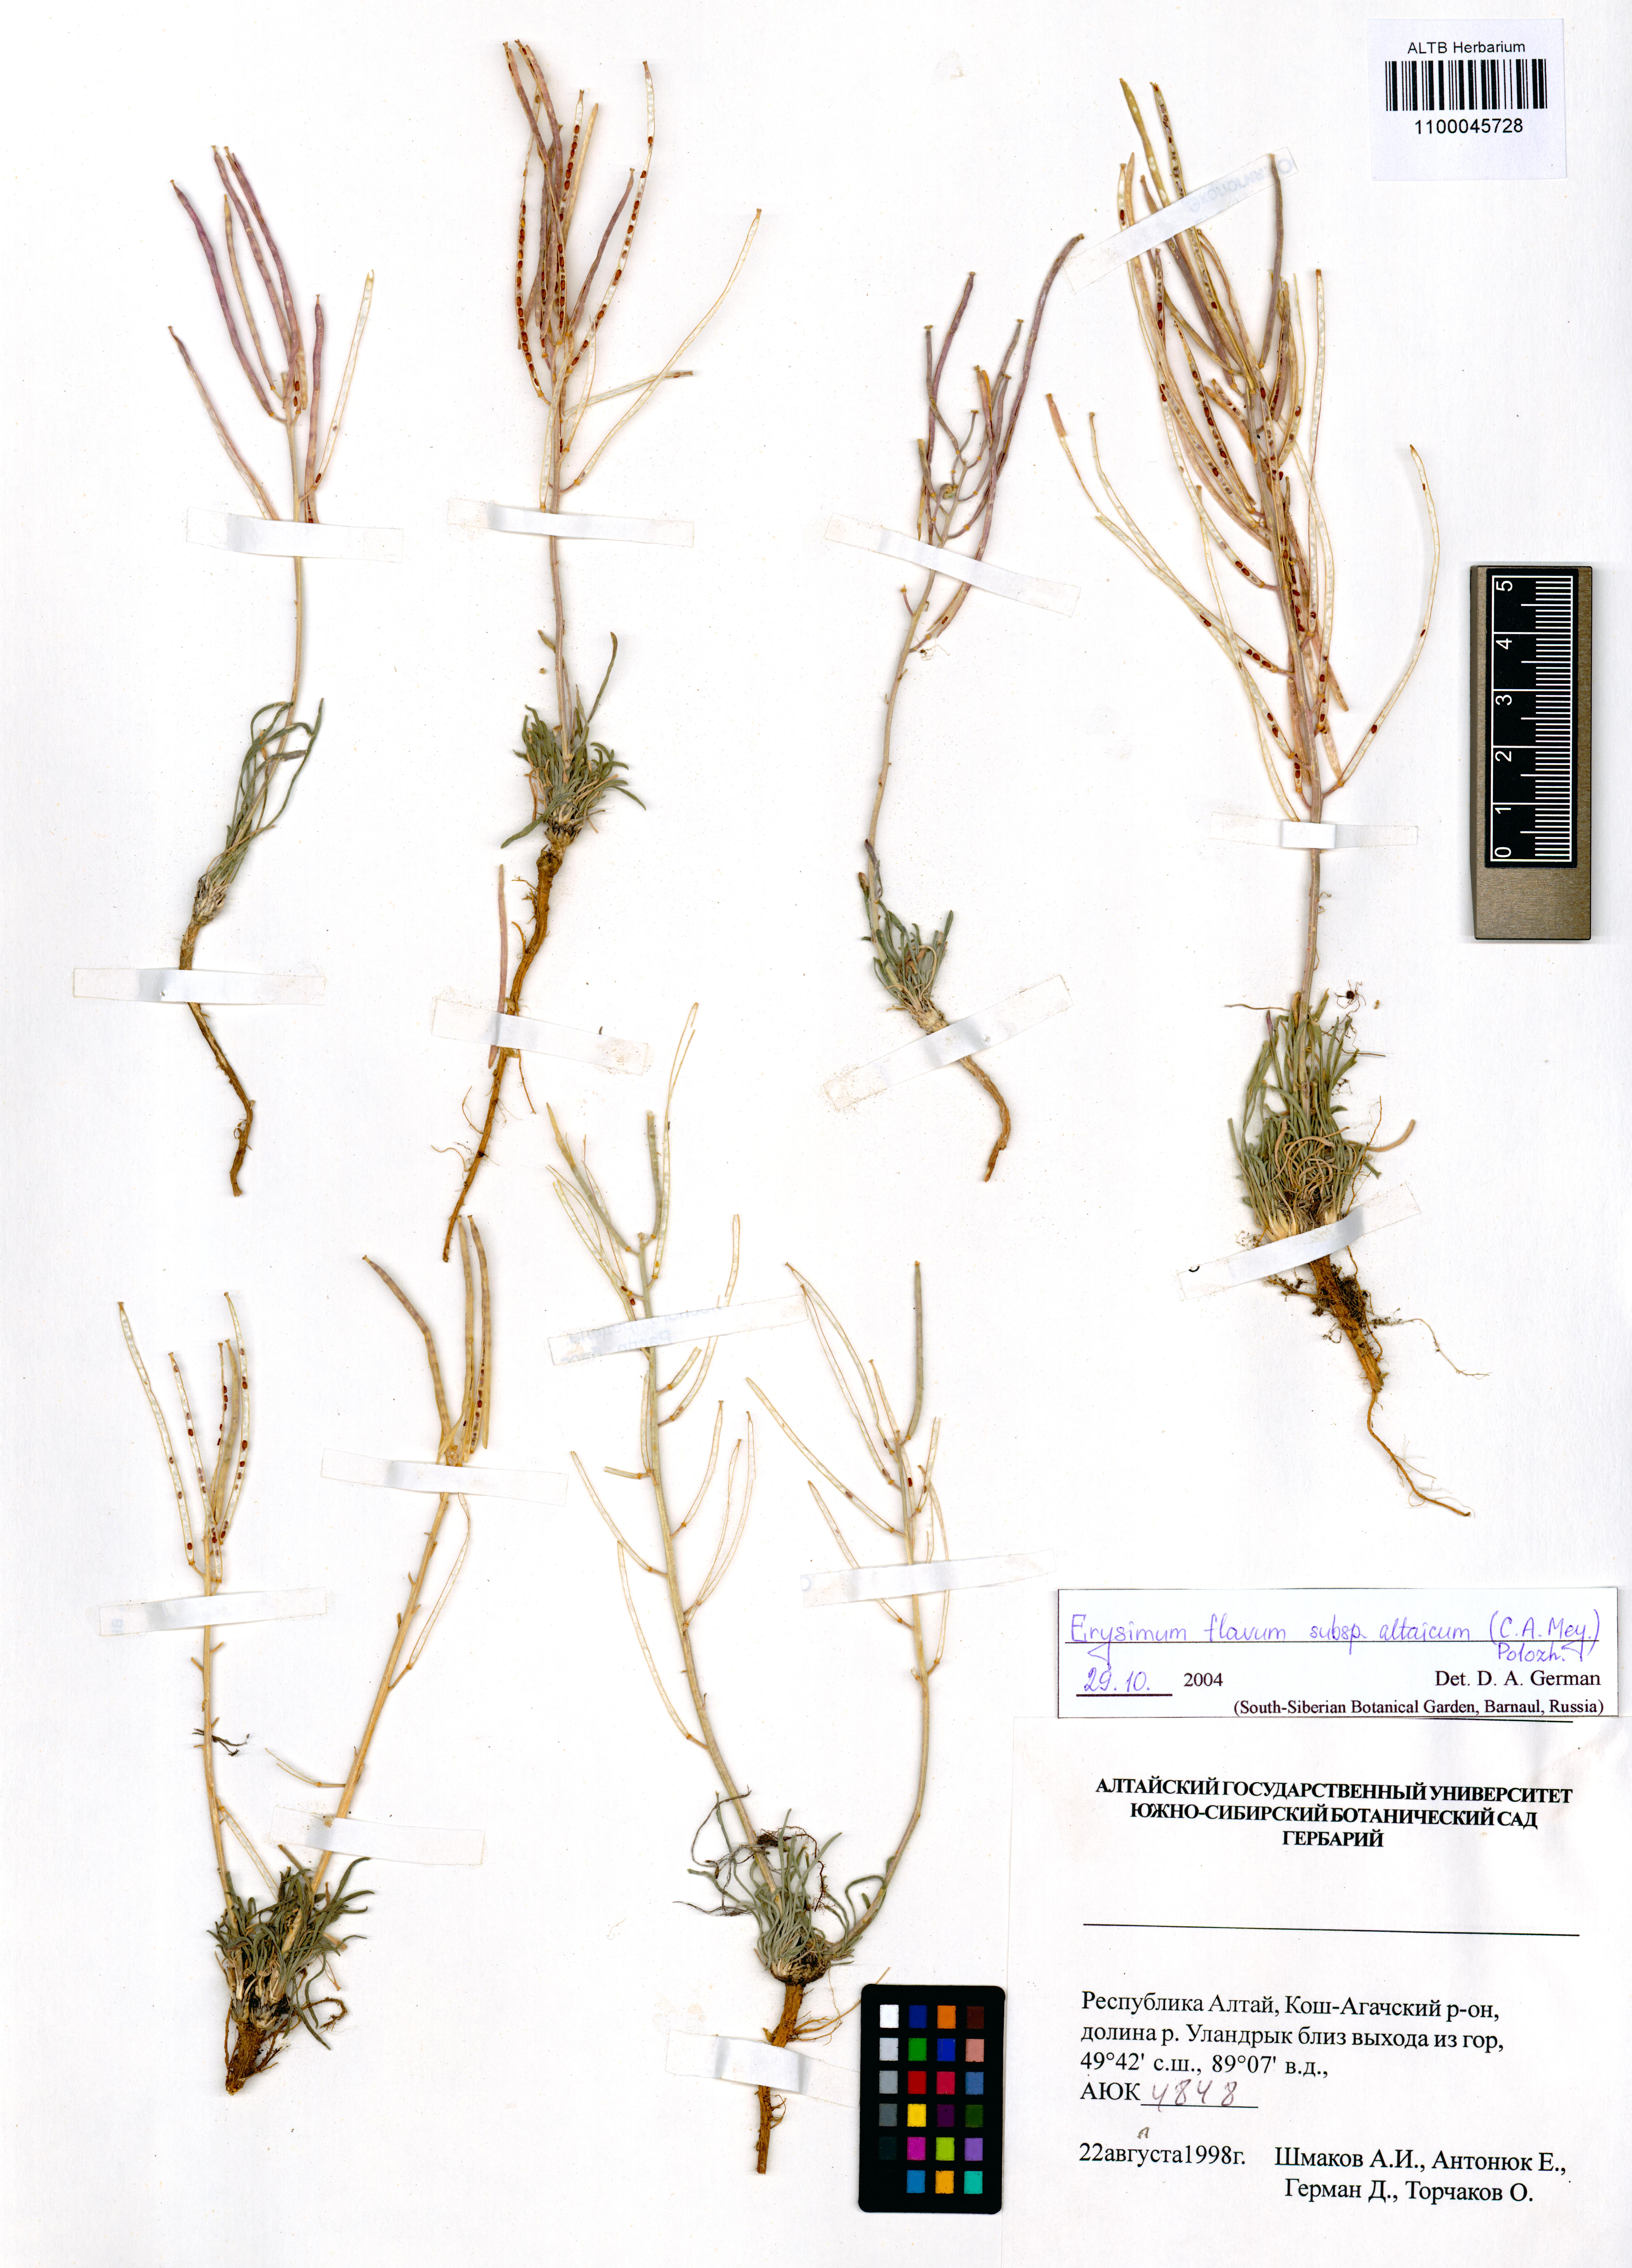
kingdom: Plantae
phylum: Tracheophyta
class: Magnoliopsida
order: Brassicales
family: Brassicaceae
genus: Erysimum
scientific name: Erysimum flavum
